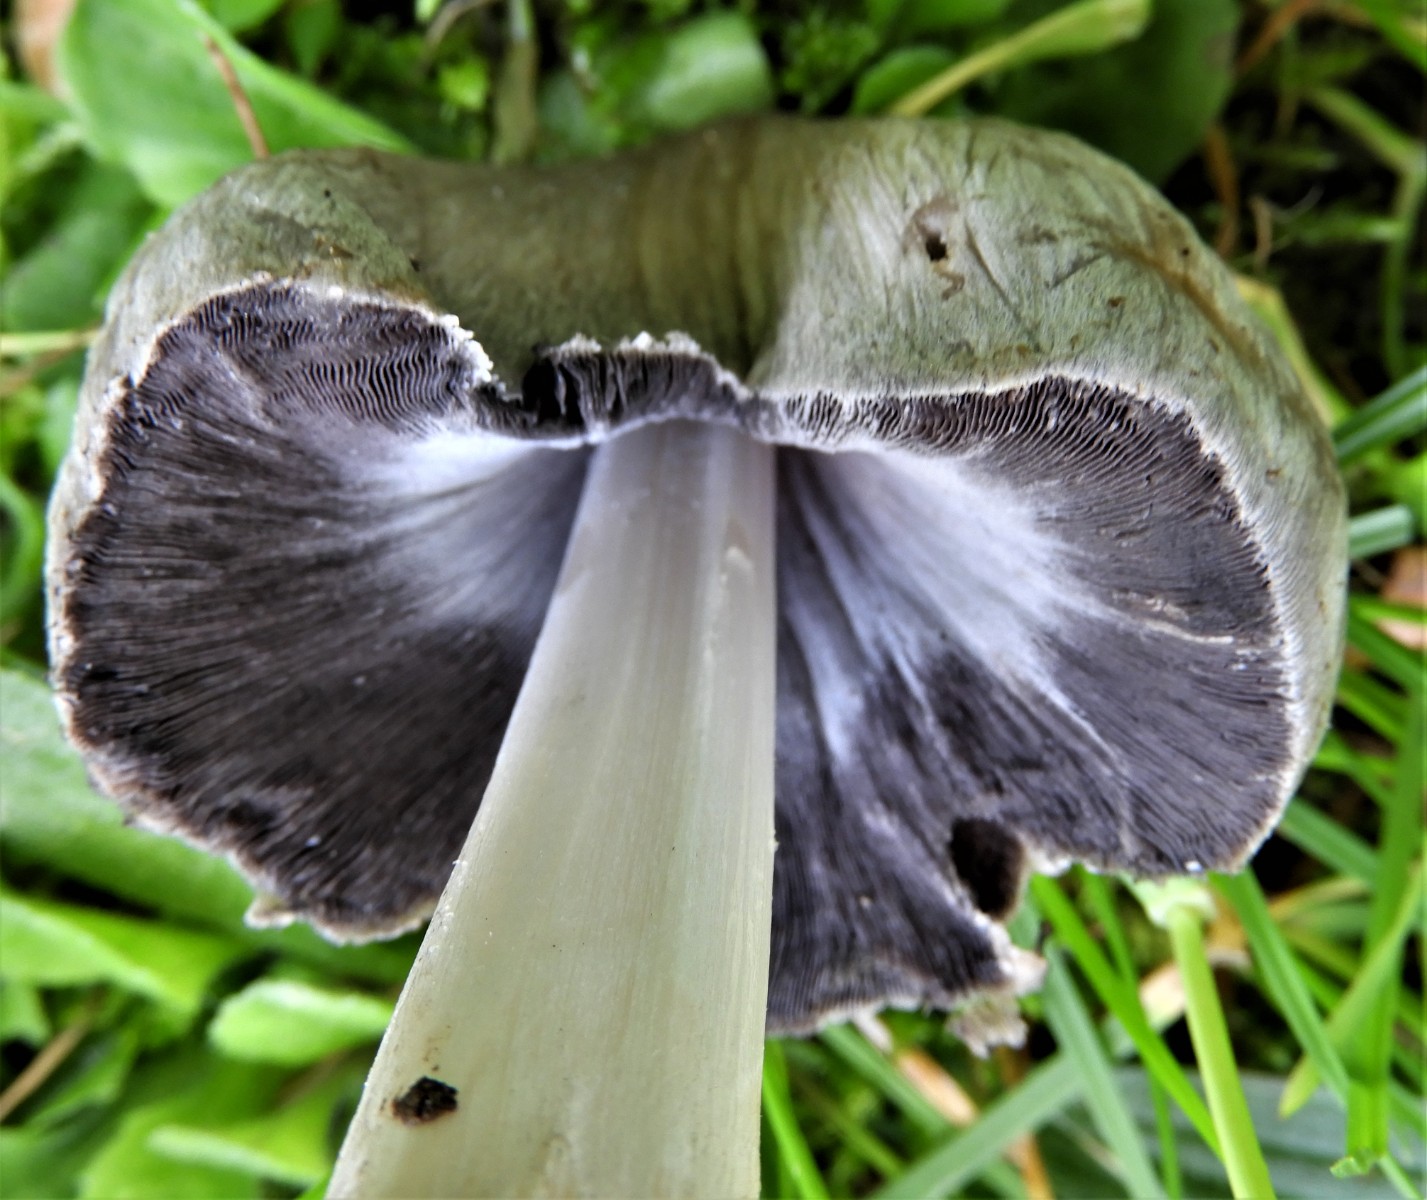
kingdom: Fungi
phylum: Basidiomycota
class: Agaricomycetes
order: Agaricales
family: Psathyrellaceae
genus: Coprinopsis
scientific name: Coprinopsis atramentaria
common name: almindelig blækhat
